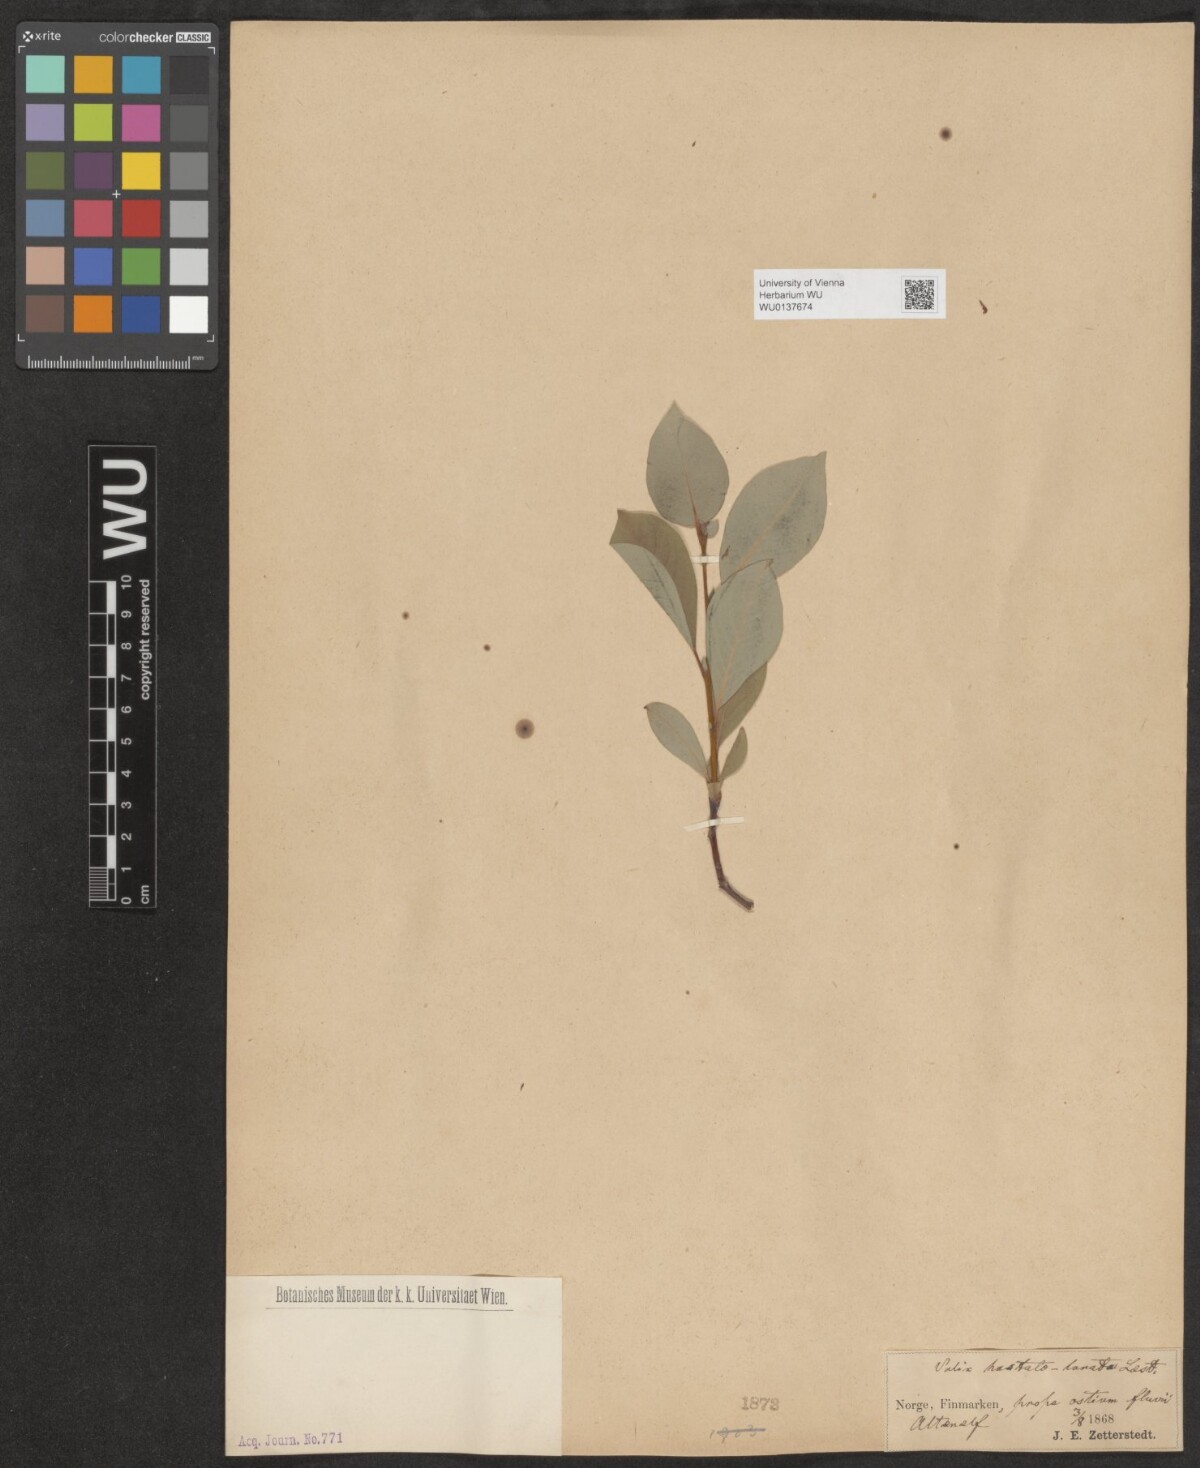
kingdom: Plantae
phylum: Tracheophyta
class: Magnoliopsida
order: Malpighiales
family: Salicaceae
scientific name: Salicaceae
